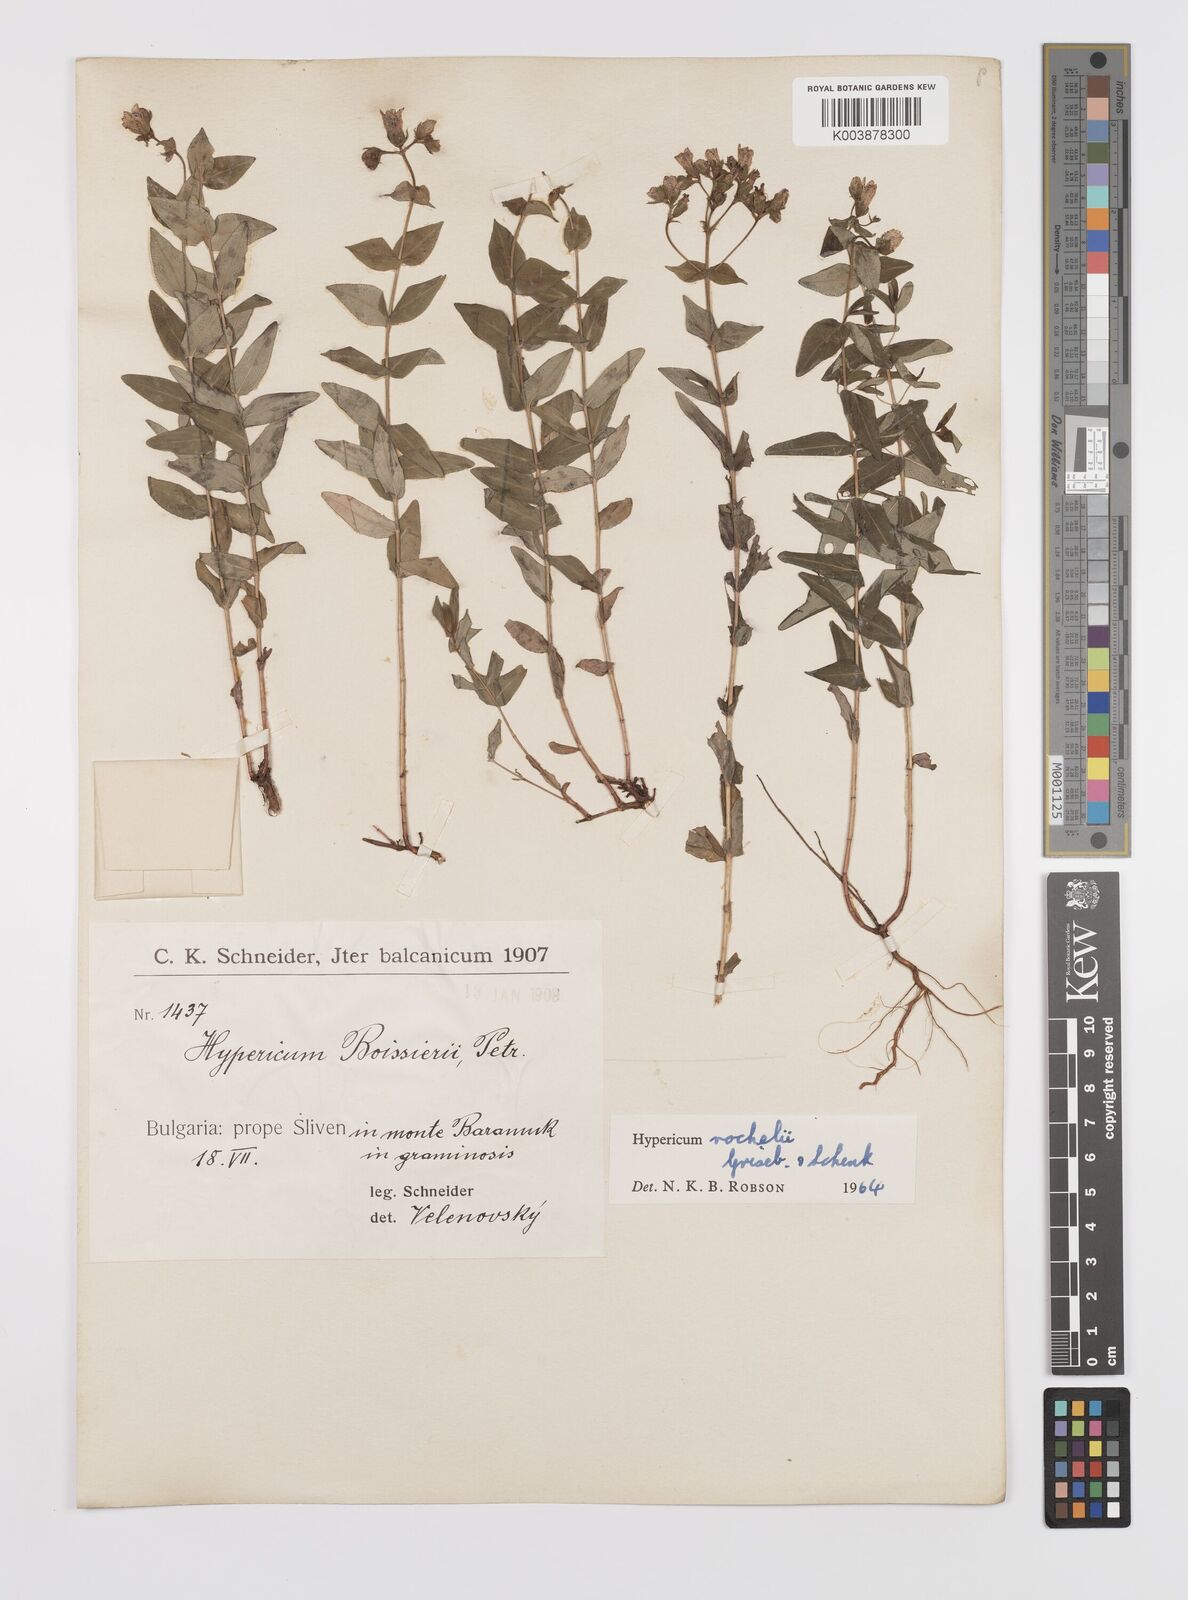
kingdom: Plantae
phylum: Tracheophyta
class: Magnoliopsida
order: Malpighiales
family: Hypericaceae
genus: Hypericum
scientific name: Hypericum rochelii
